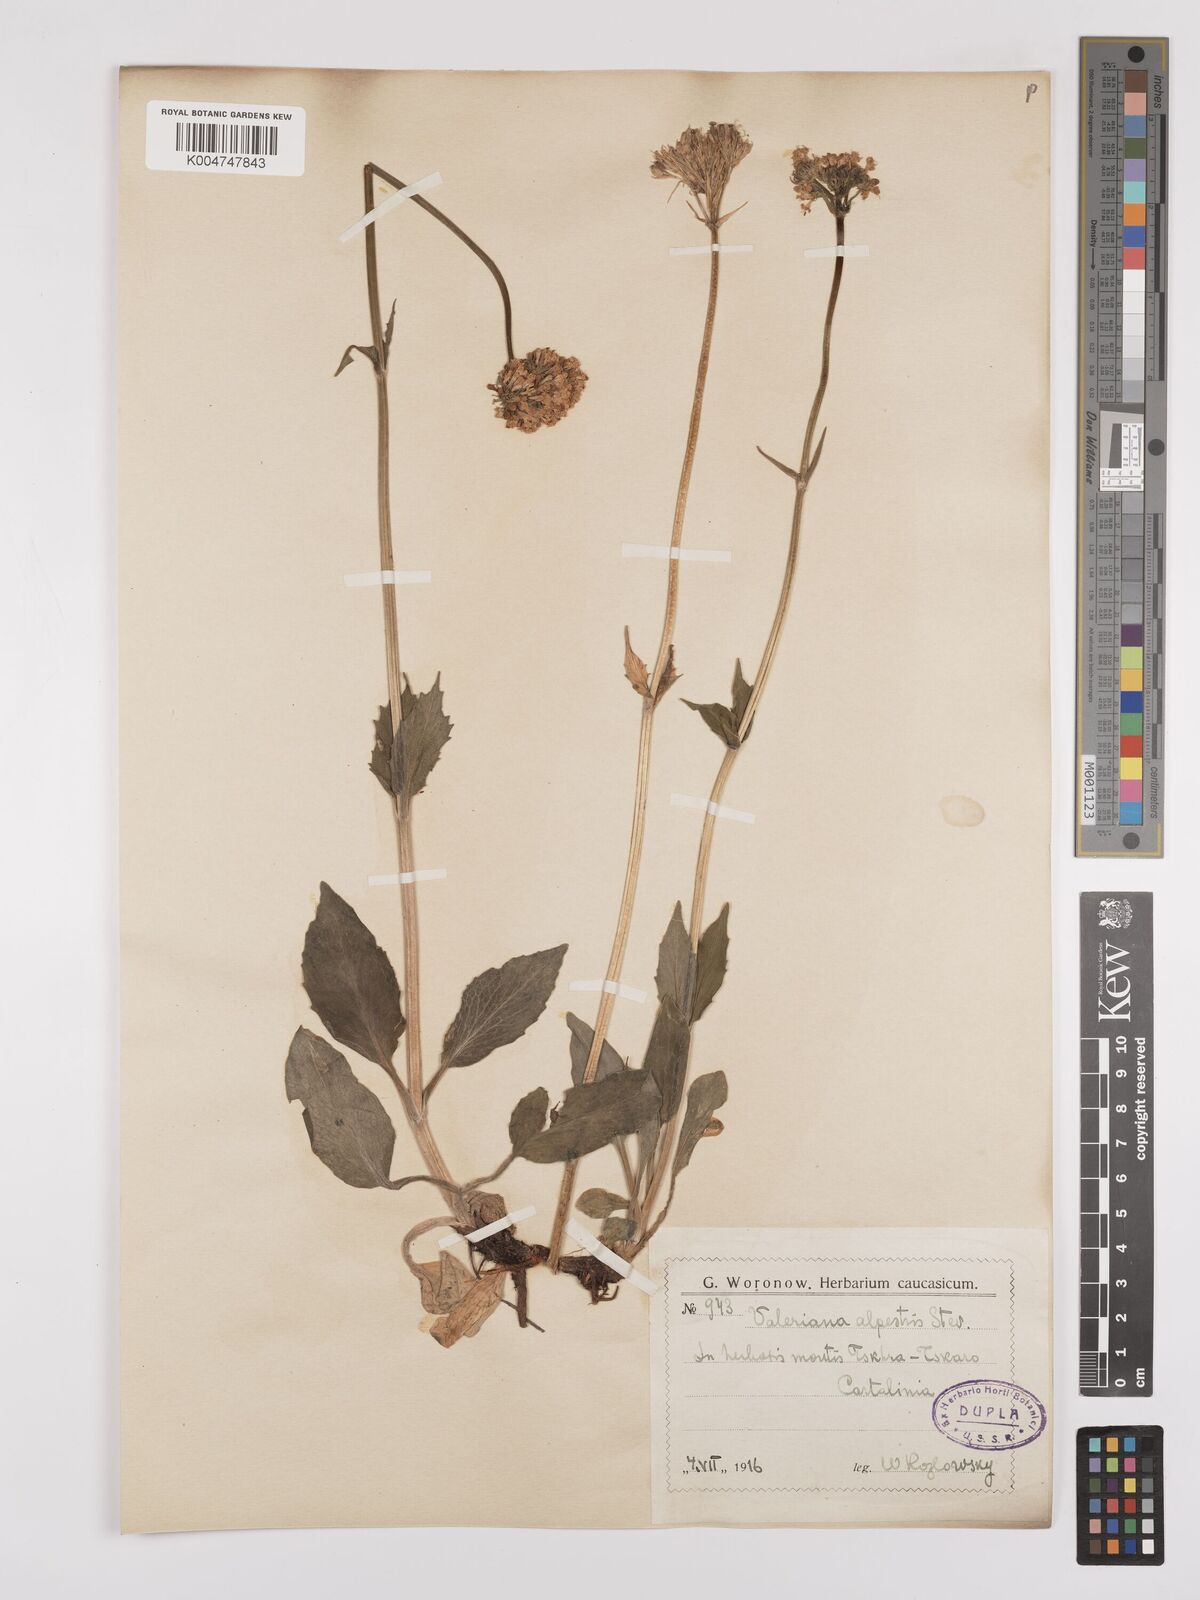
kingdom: Plantae
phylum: Tracheophyta
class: Magnoliopsida
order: Dipsacales
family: Caprifoliaceae
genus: Valeriana
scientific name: Valeriana alpestris
